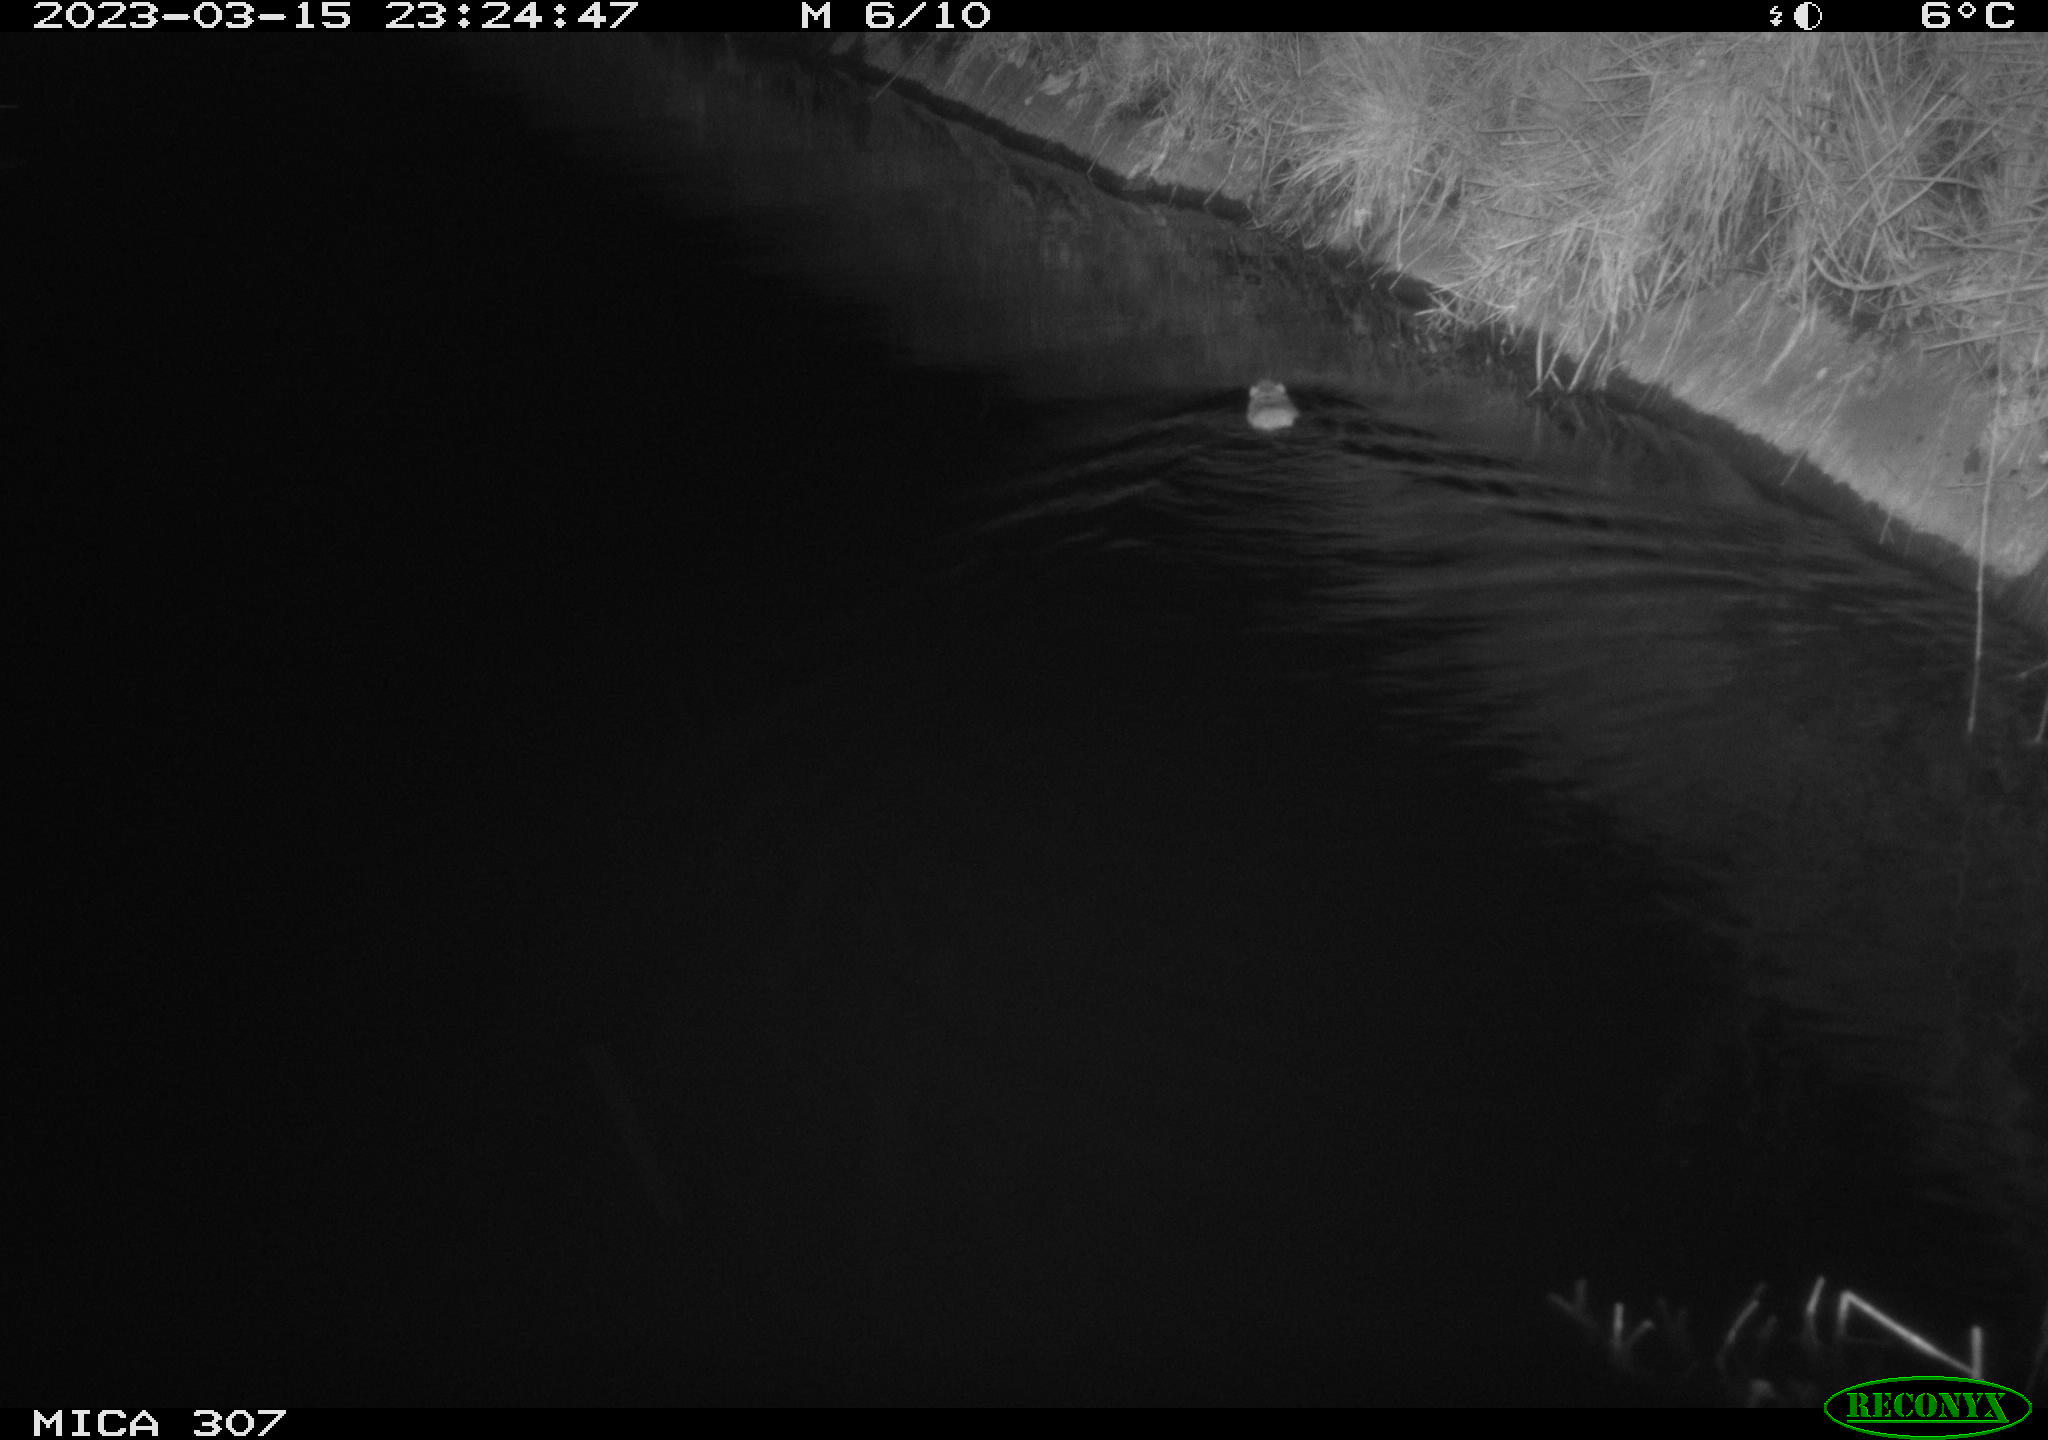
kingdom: Animalia
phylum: Chordata
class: Mammalia
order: Rodentia
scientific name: Rodentia
